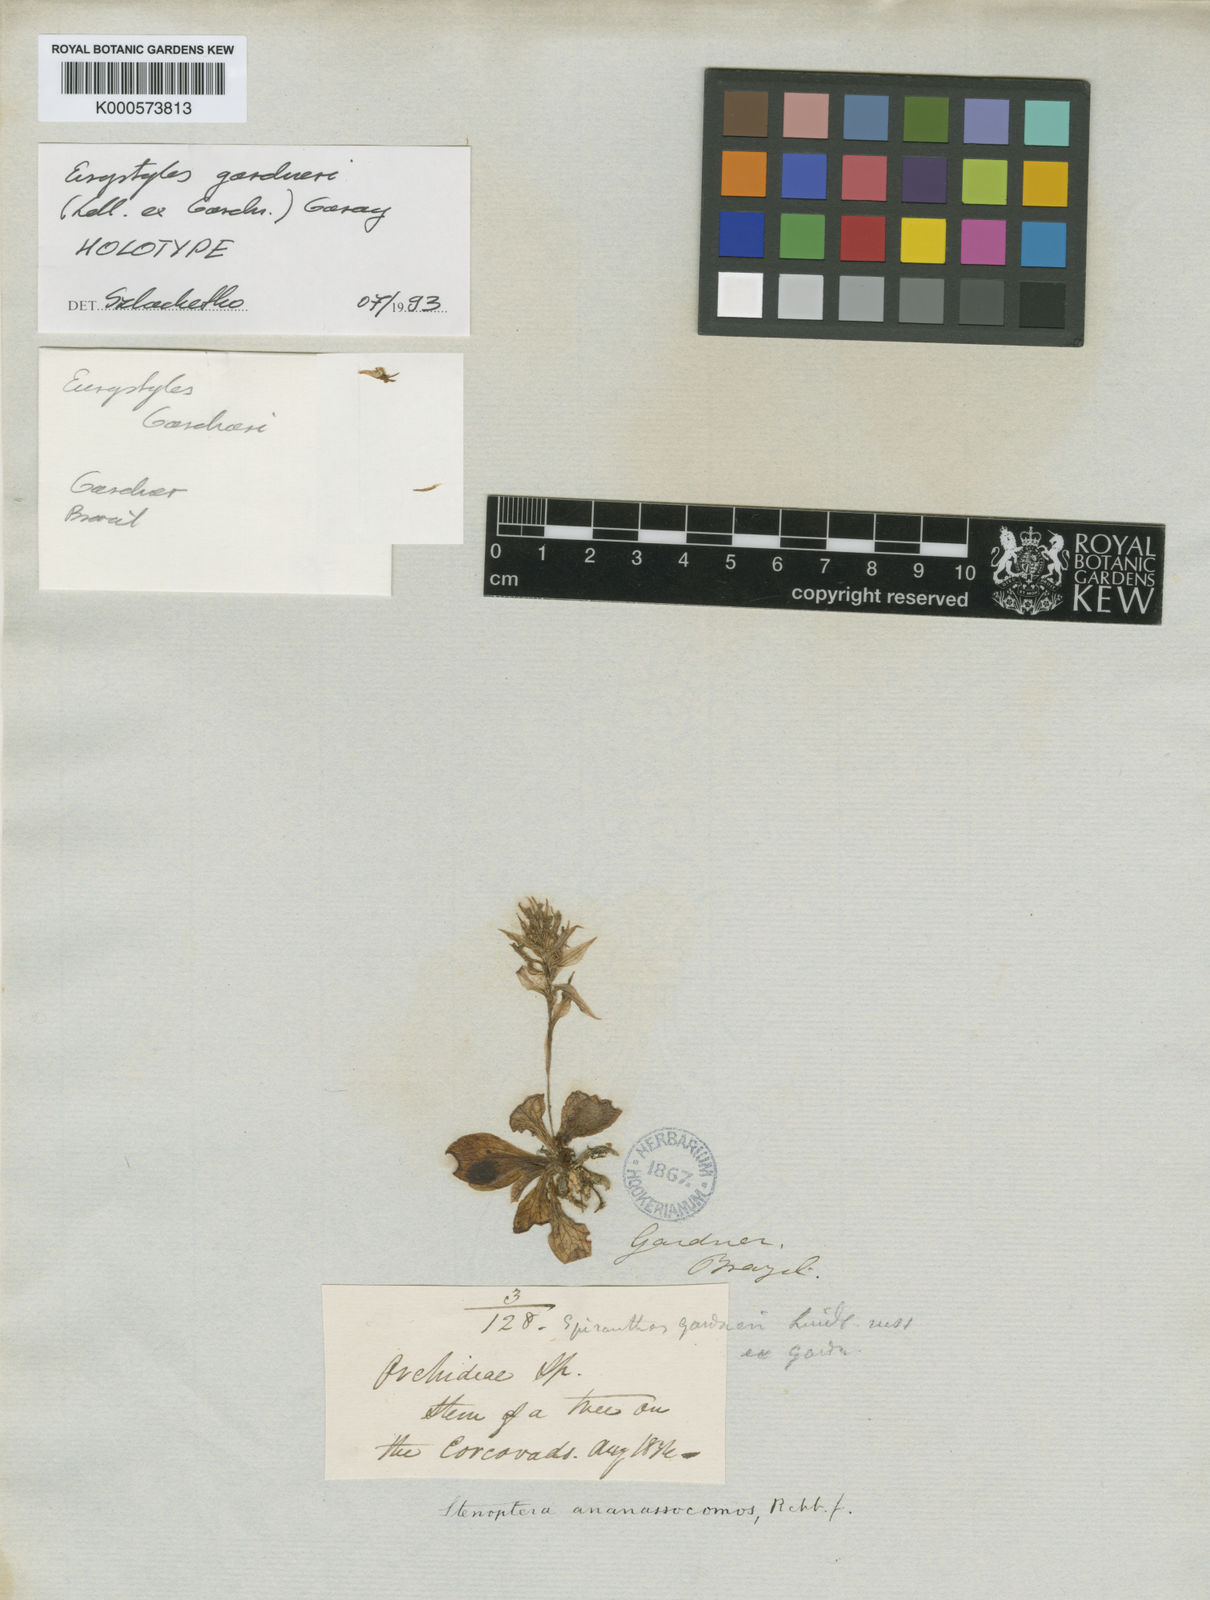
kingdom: Plantae
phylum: Tracheophyta
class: Liliopsida
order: Asparagales
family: Orchidaceae
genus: Eurystyles
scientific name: Eurystyles gardneri
